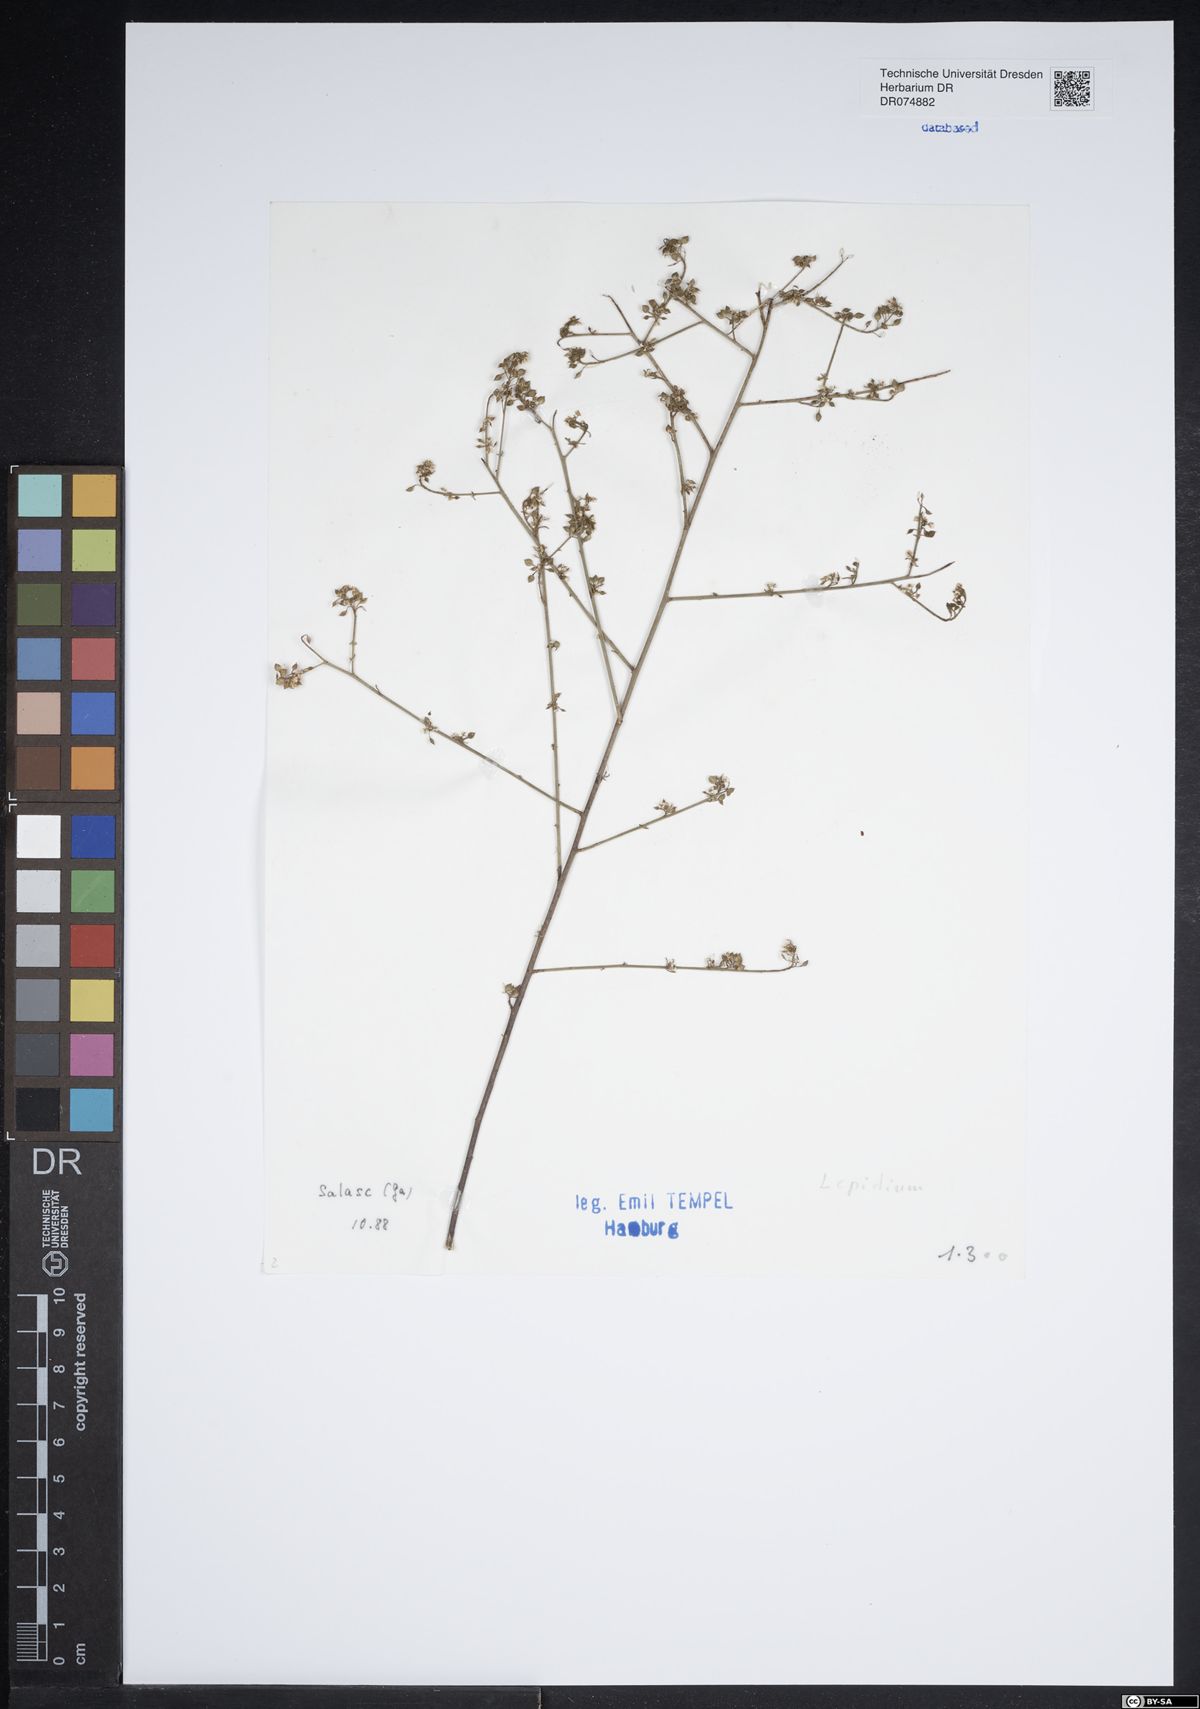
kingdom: Plantae
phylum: Tracheophyta
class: Magnoliopsida
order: Brassicales
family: Brassicaceae
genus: Lepidium
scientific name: Lepidium
